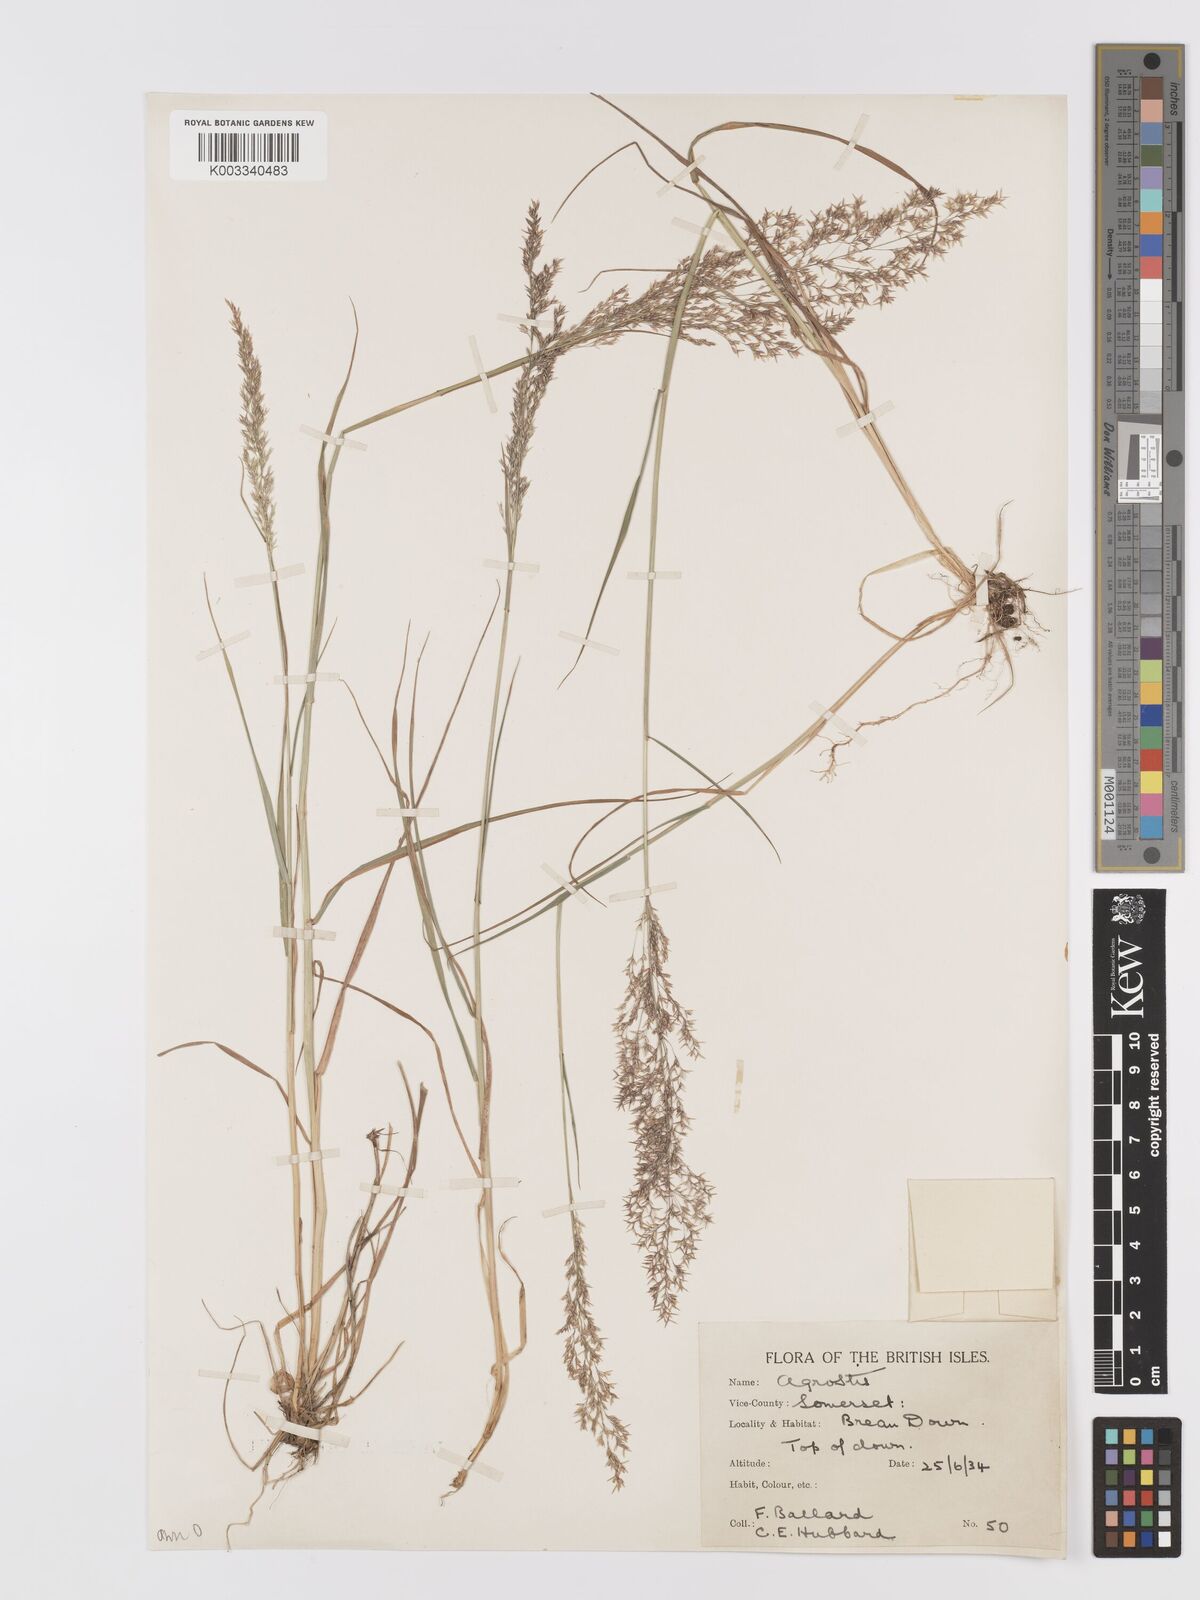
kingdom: Plantae
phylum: Tracheophyta
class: Liliopsida
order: Poales
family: Poaceae
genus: Agrostis
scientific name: Agrostis capillaris
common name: Colonial bentgrass
